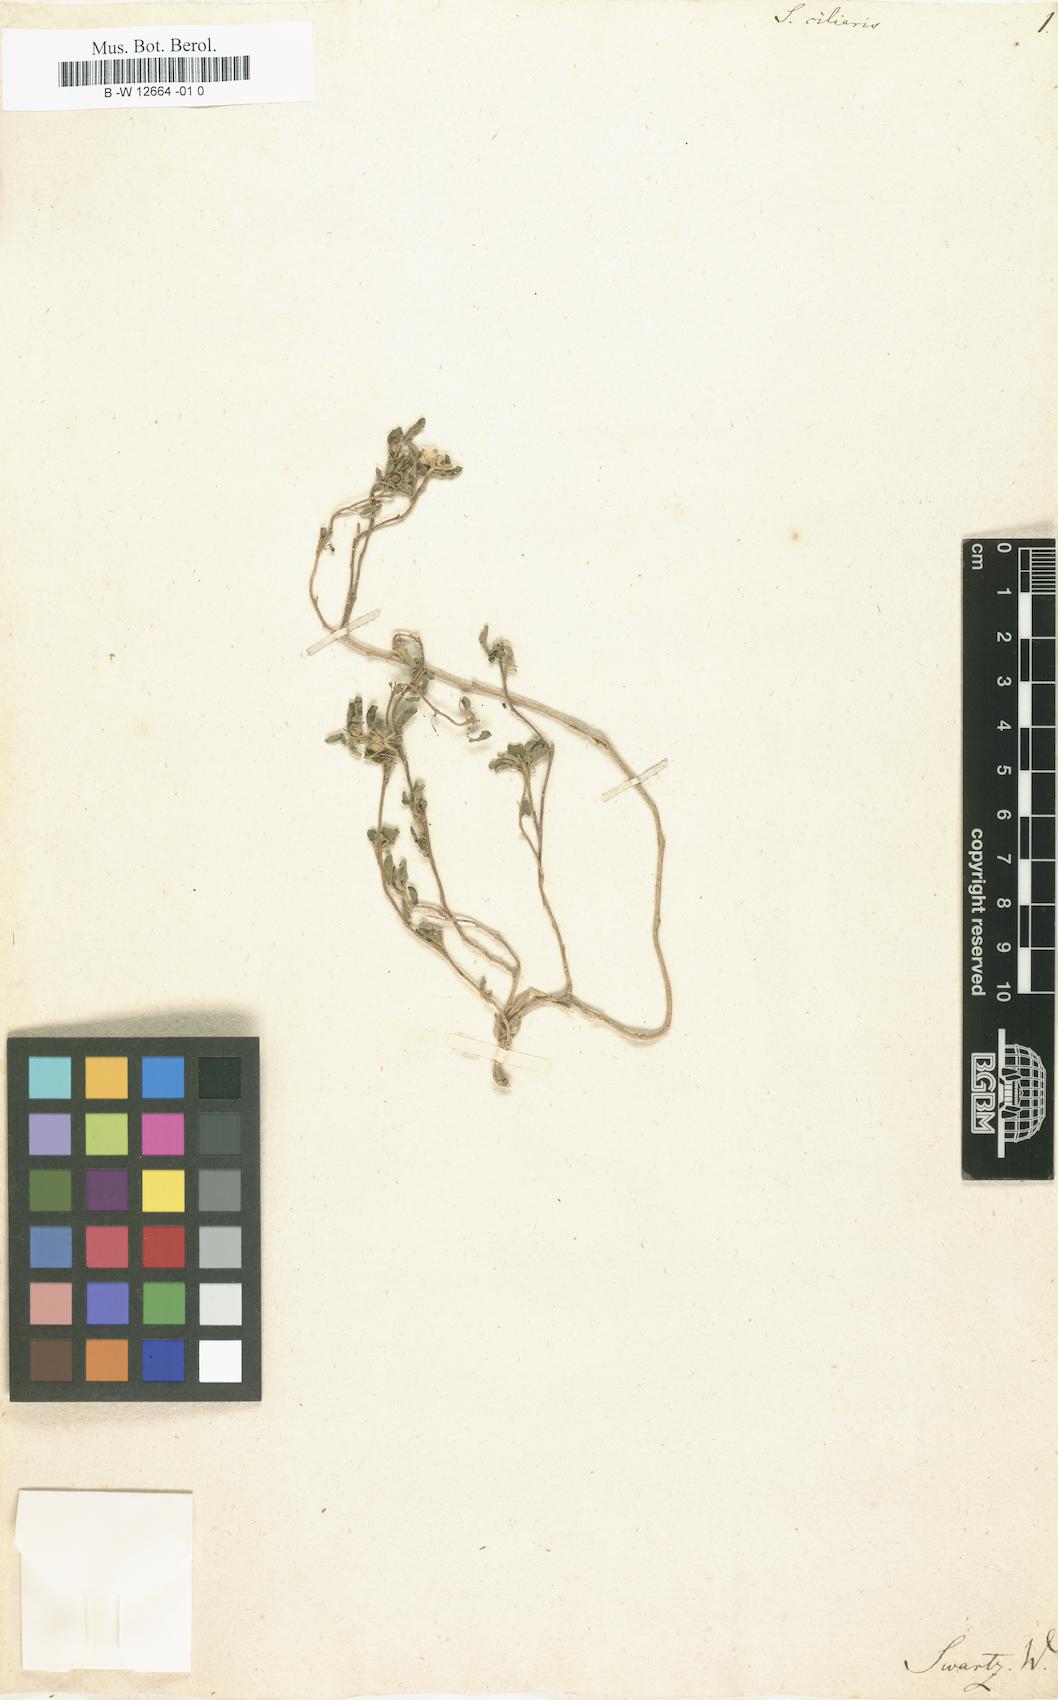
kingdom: Plantae
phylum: Tracheophyta
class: Magnoliopsida
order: Malvales
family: Malvaceae
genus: Sida
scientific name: Sida ciliaris
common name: Bracted fanpetals
